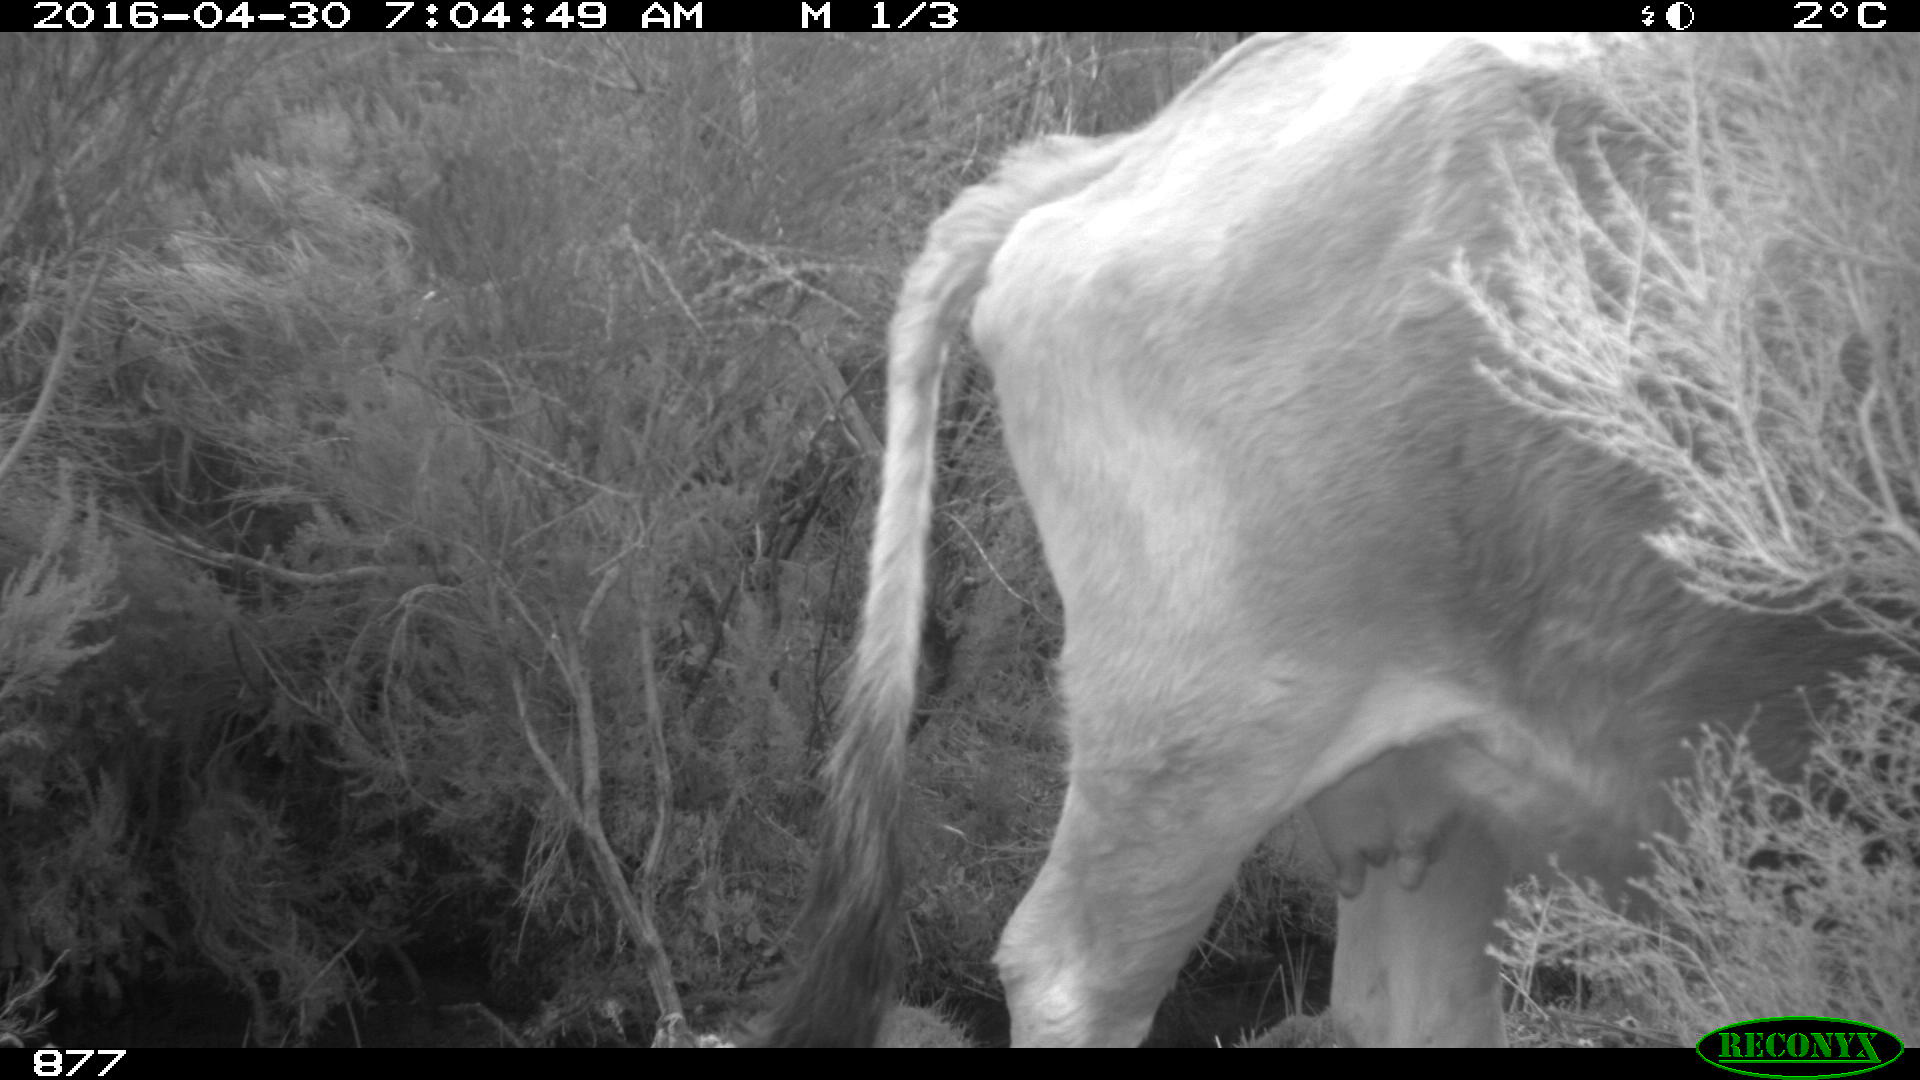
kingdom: Animalia
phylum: Chordata
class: Mammalia
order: Artiodactyla
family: Bovidae
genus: Bos
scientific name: Bos taurus
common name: Domesticated cattle
